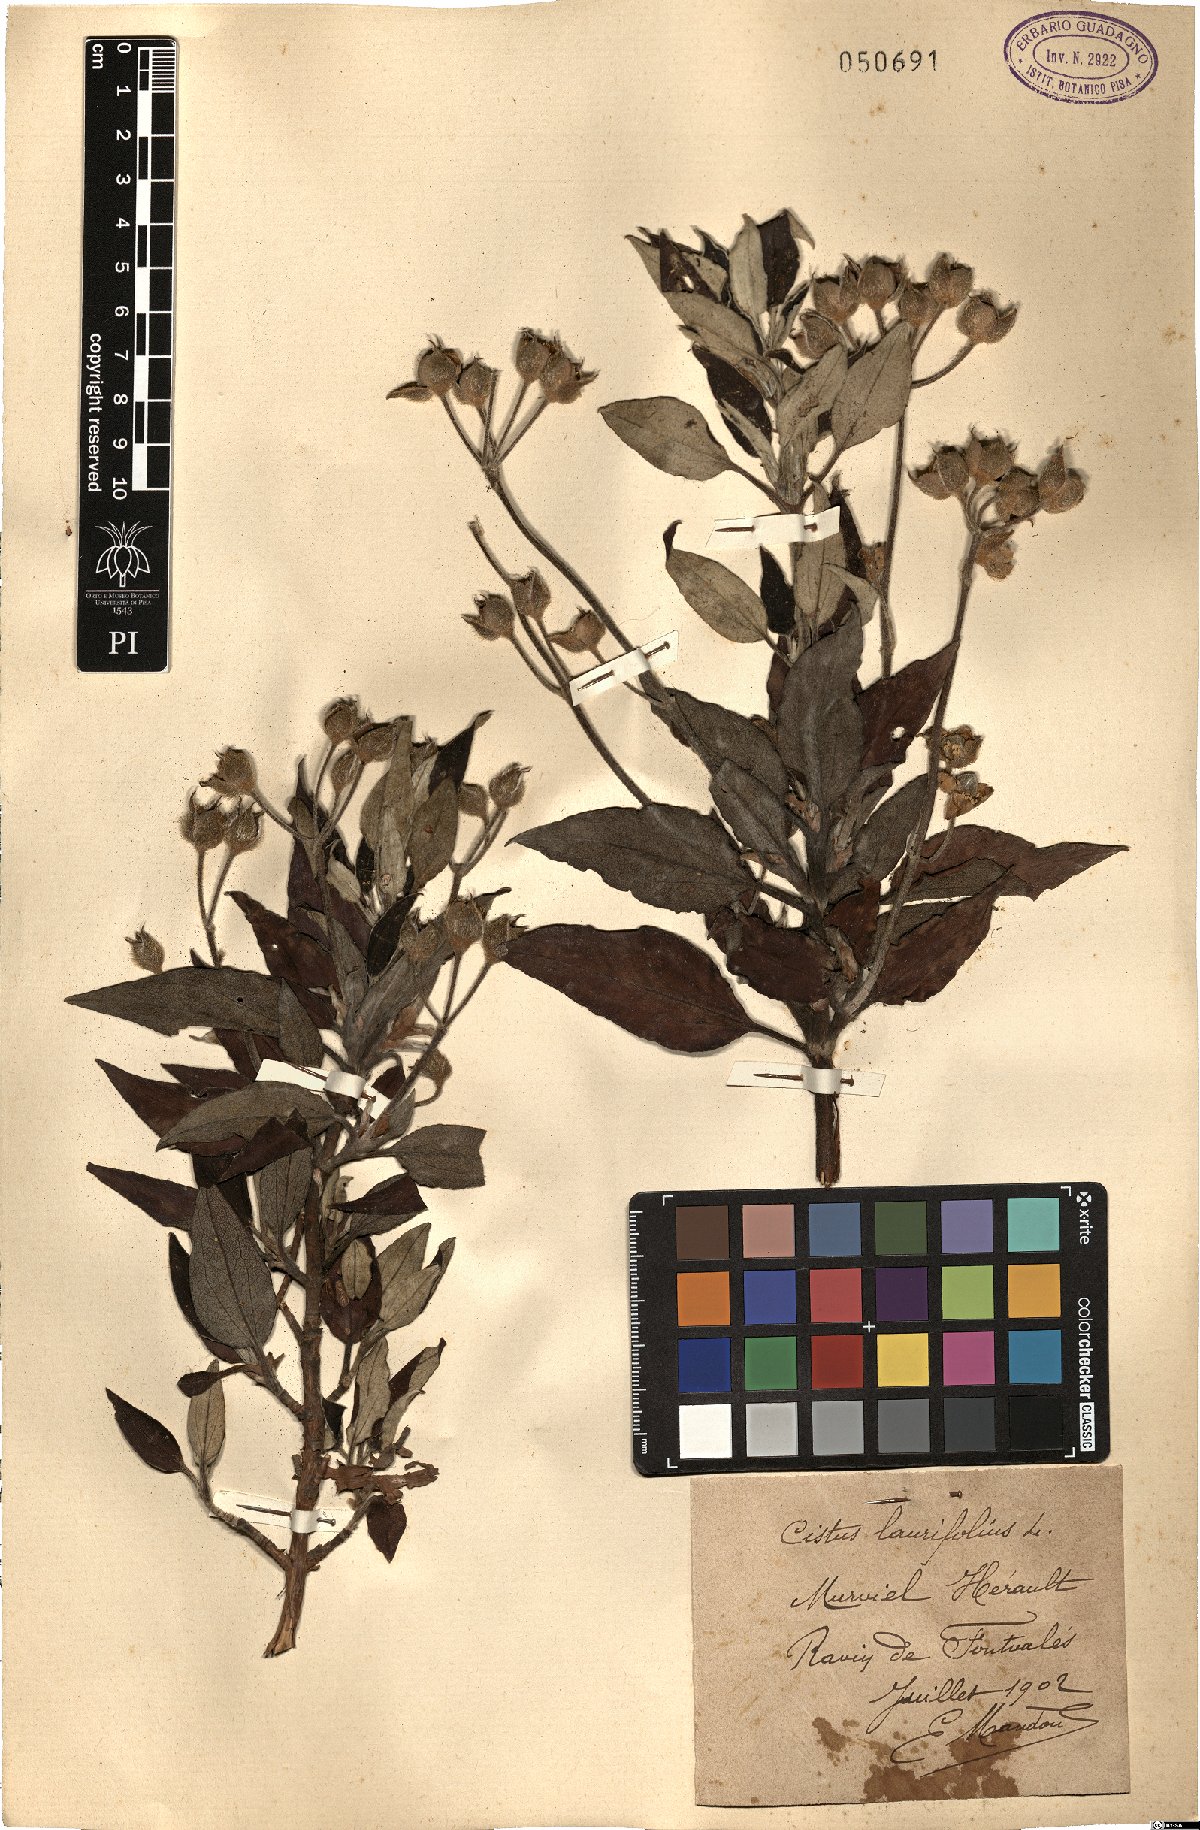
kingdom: Plantae
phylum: Tracheophyta
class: Magnoliopsida
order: Malvales
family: Cistaceae
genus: Cistus
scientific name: Cistus laurifolius
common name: Laurel-leaved cistus
